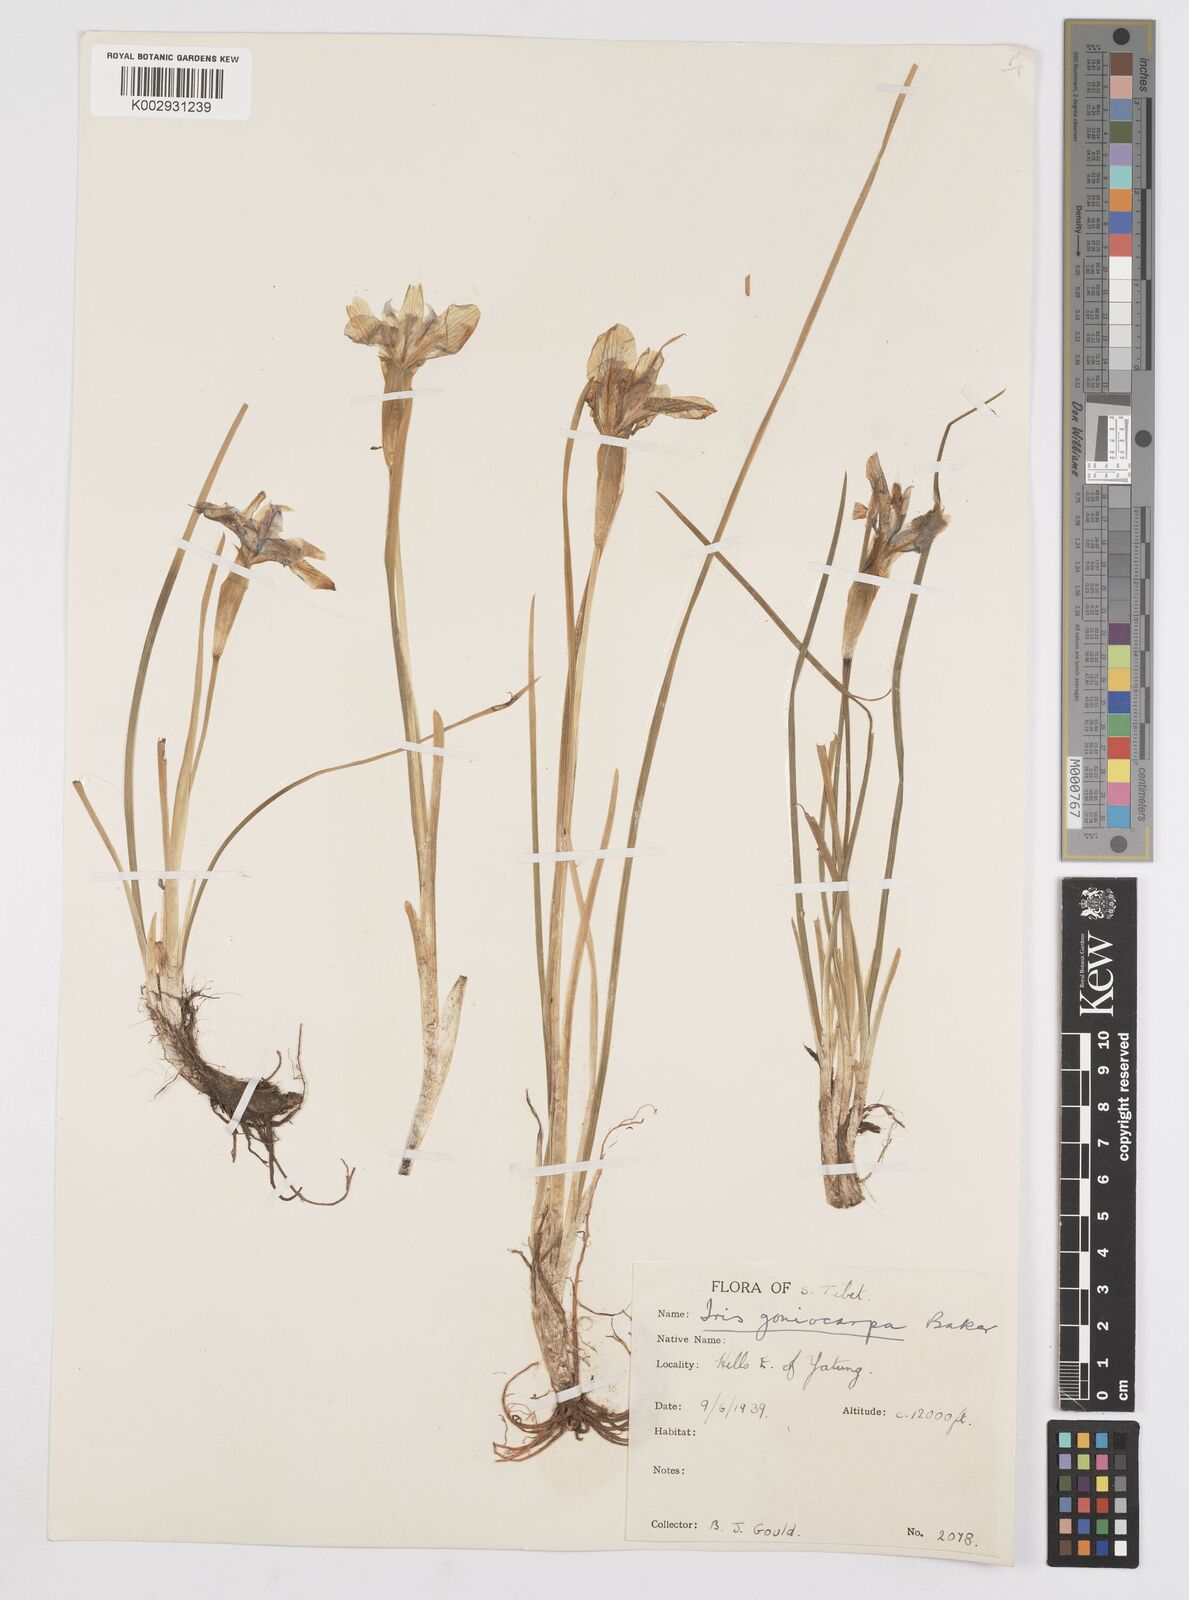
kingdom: Plantae
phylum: Tracheophyta
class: Liliopsida
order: Asparagales
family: Iridaceae
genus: Iris
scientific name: Iris goniocarpa
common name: Angular-fruit iris
